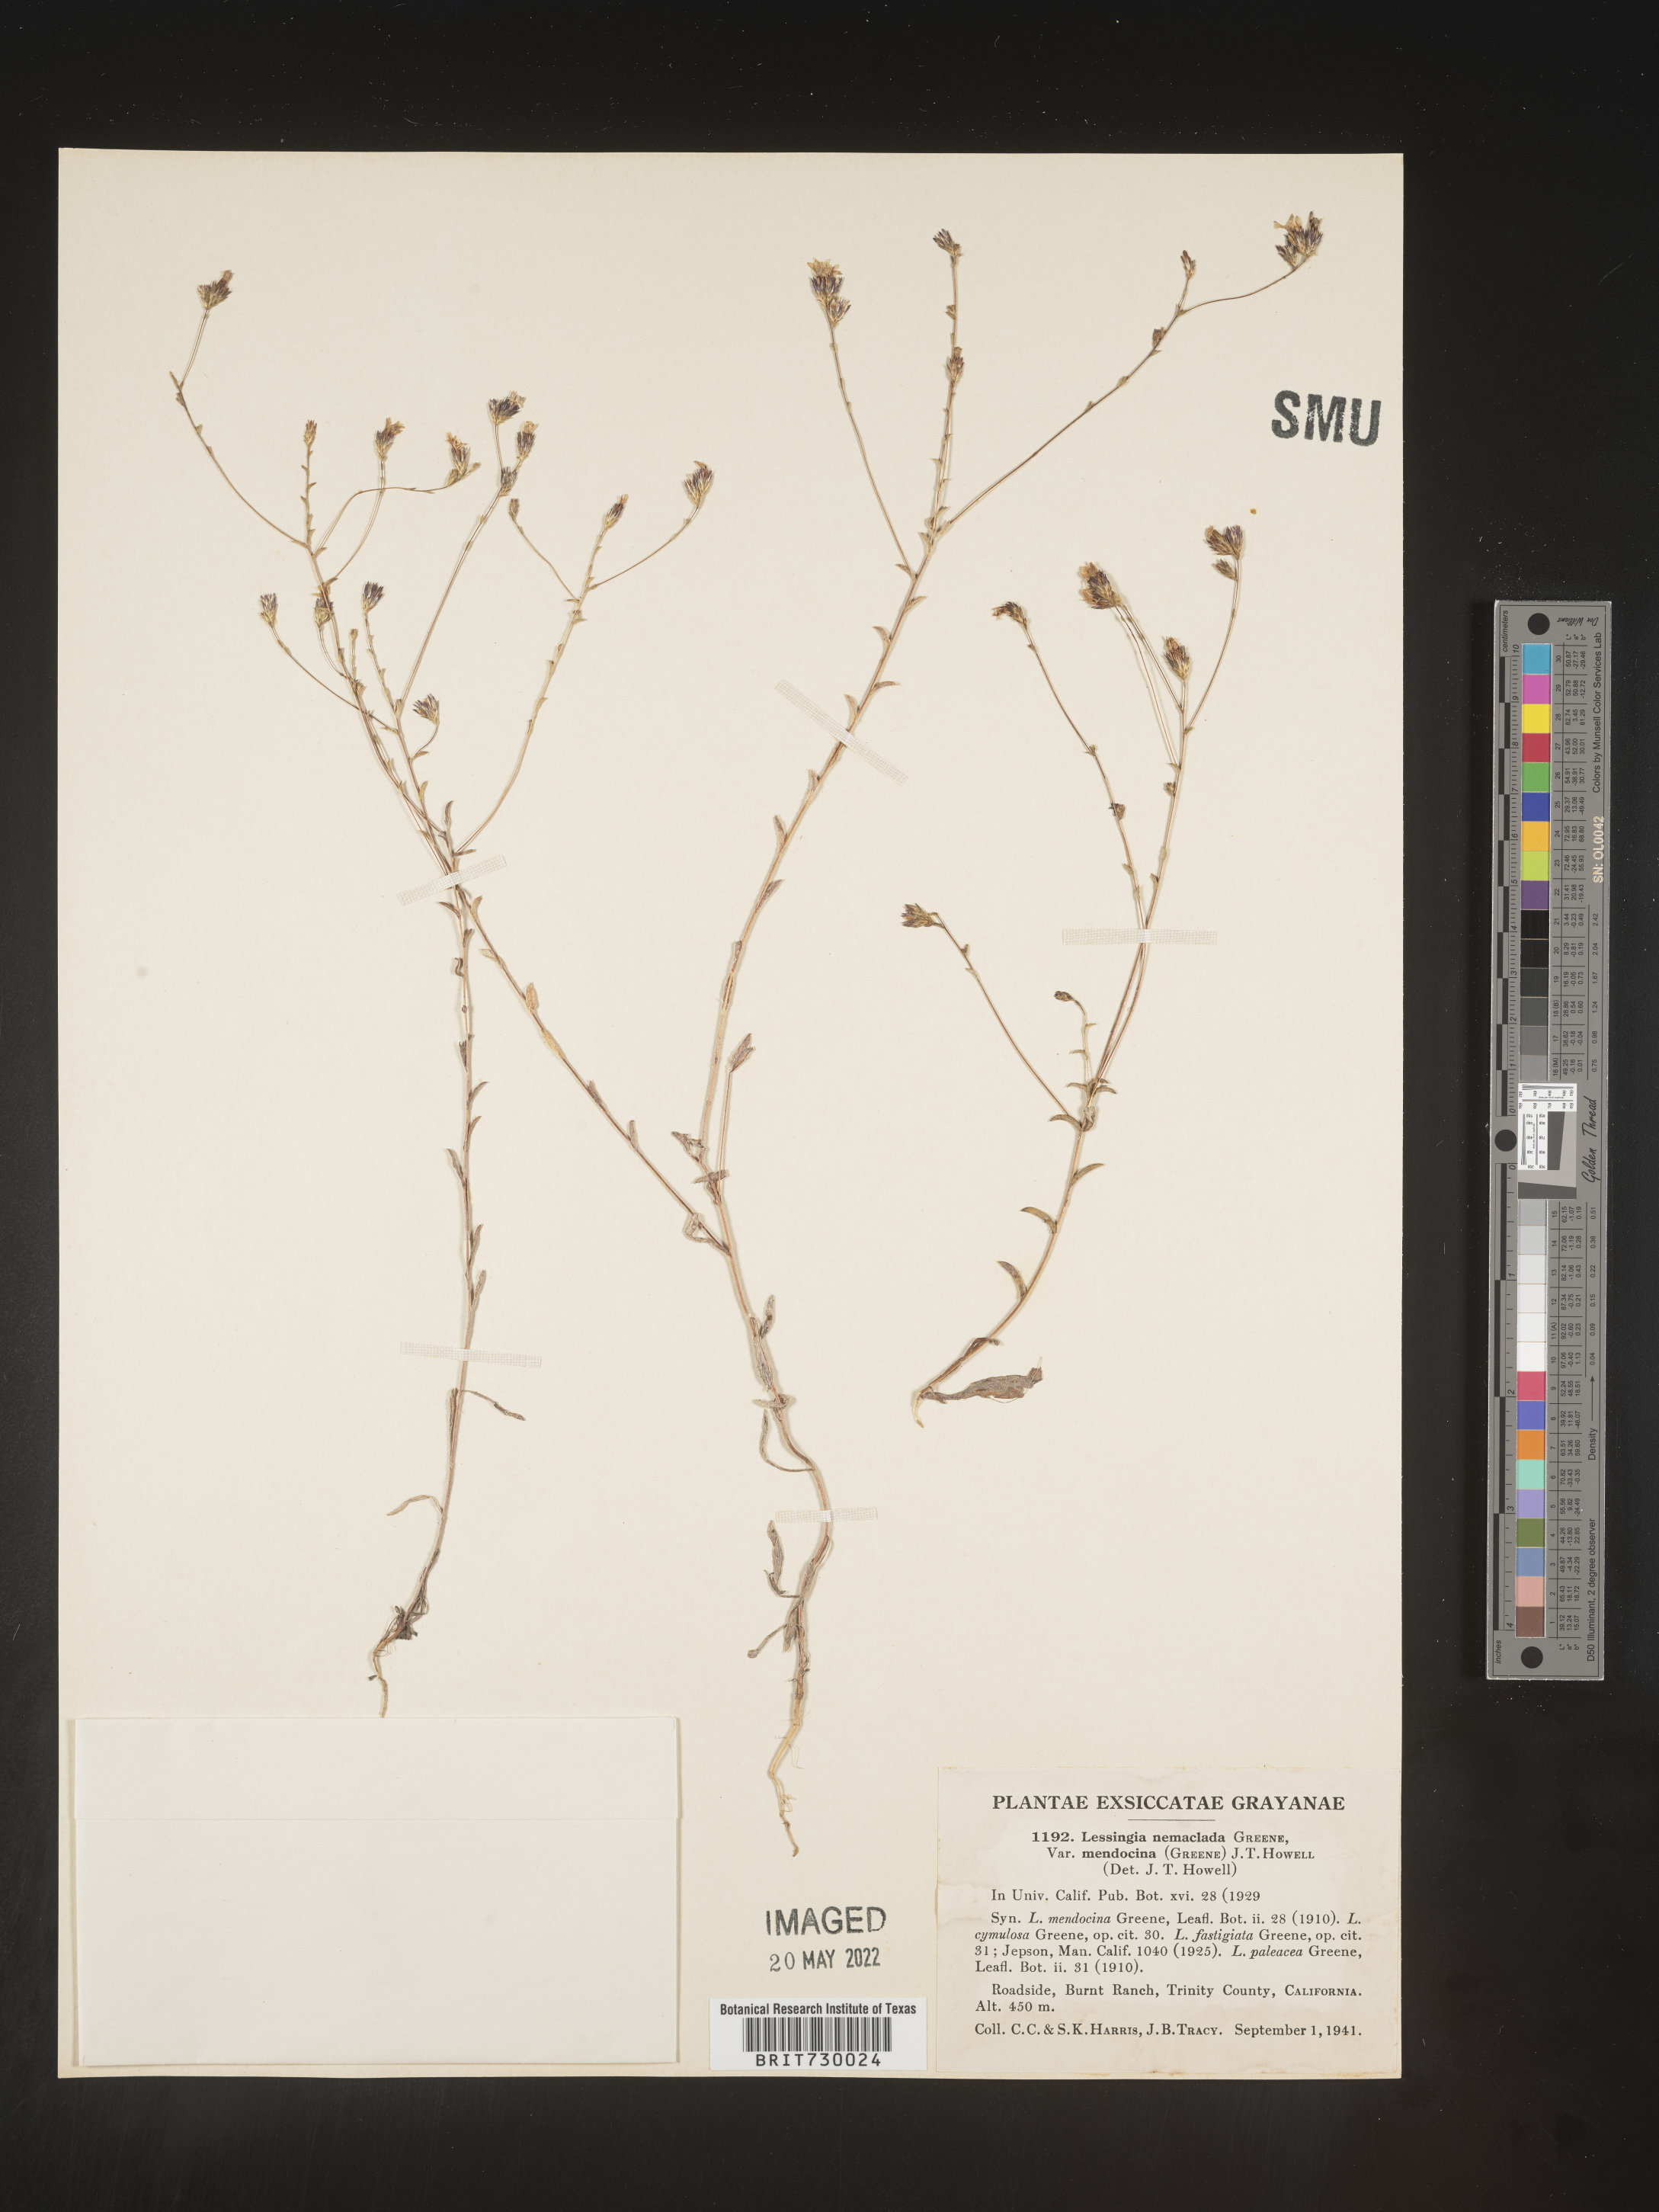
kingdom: Plantae
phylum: Tracheophyta
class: Magnoliopsida
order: Asterales
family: Asteraceae
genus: Lessingia
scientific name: Lessingia
